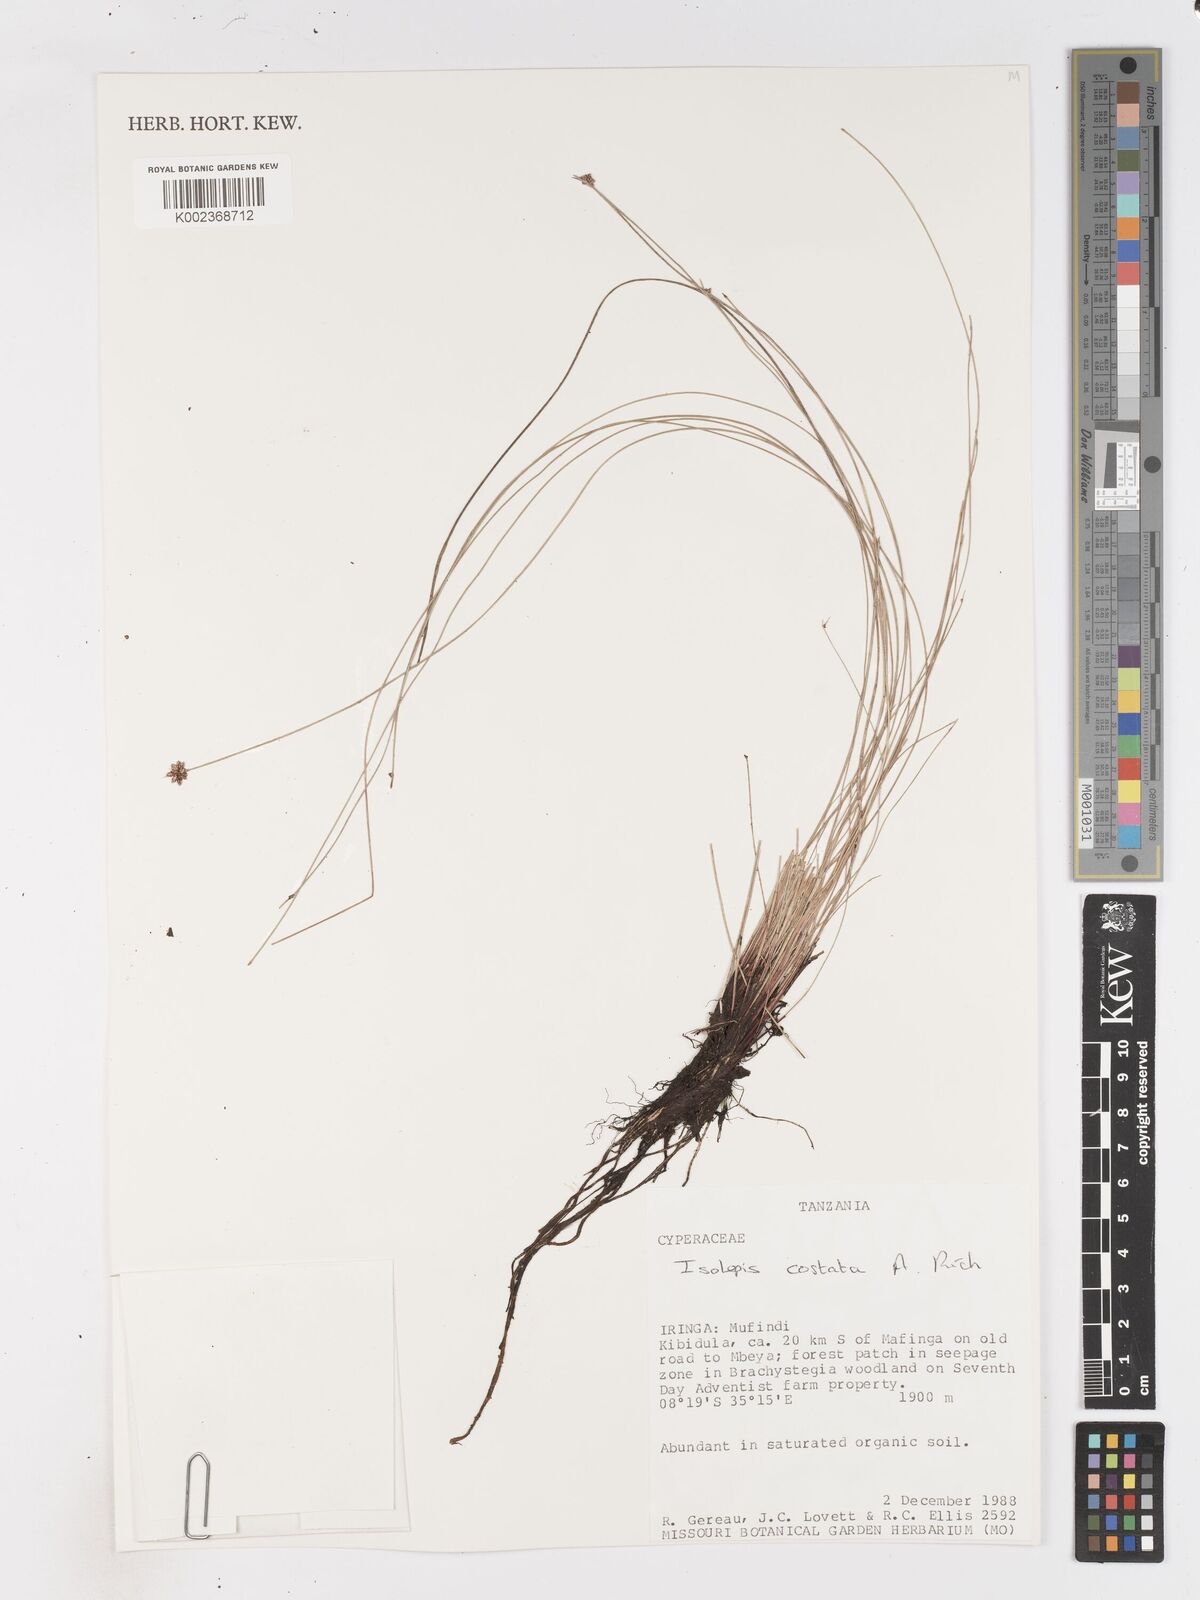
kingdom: Plantae
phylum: Tracheophyta
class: Liliopsida
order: Poales
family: Cyperaceae
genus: Isolepis
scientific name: Isolepis costata
